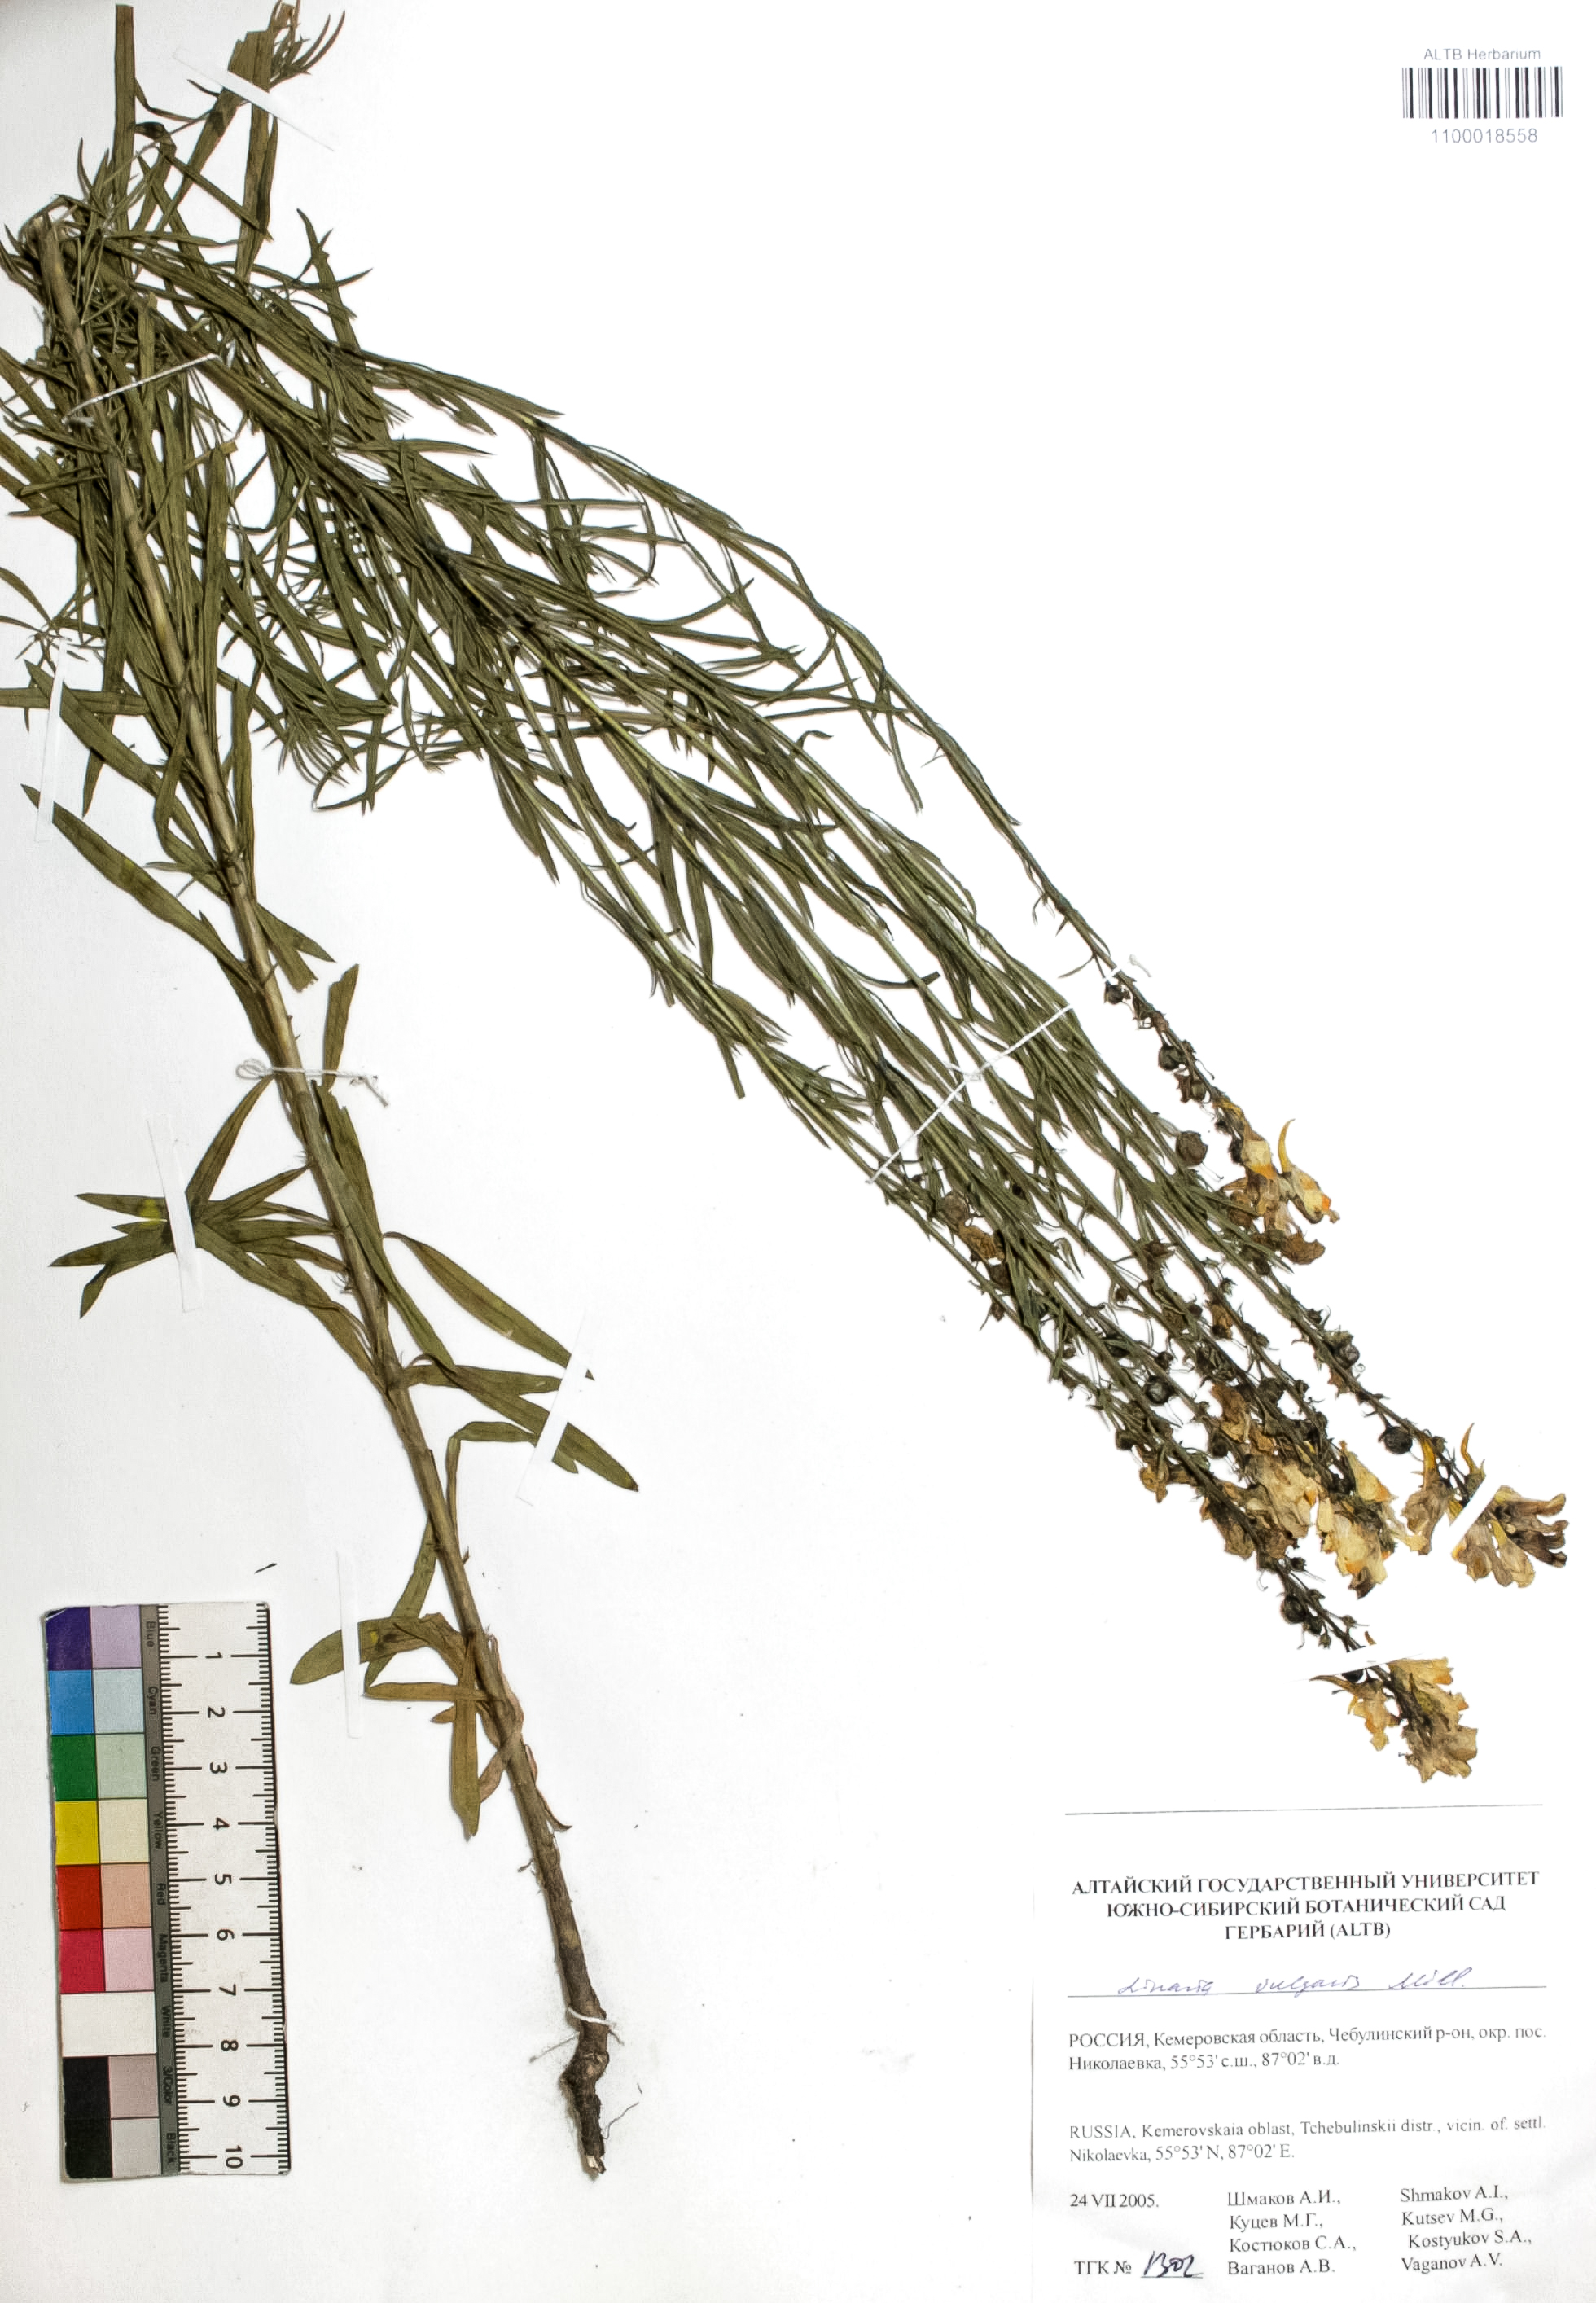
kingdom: Plantae
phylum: Tracheophyta
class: Magnoliopsida
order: Lamiales
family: Plantaginaceae
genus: Linaria
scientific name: Linaria vulgaris
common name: Butter and eggs
